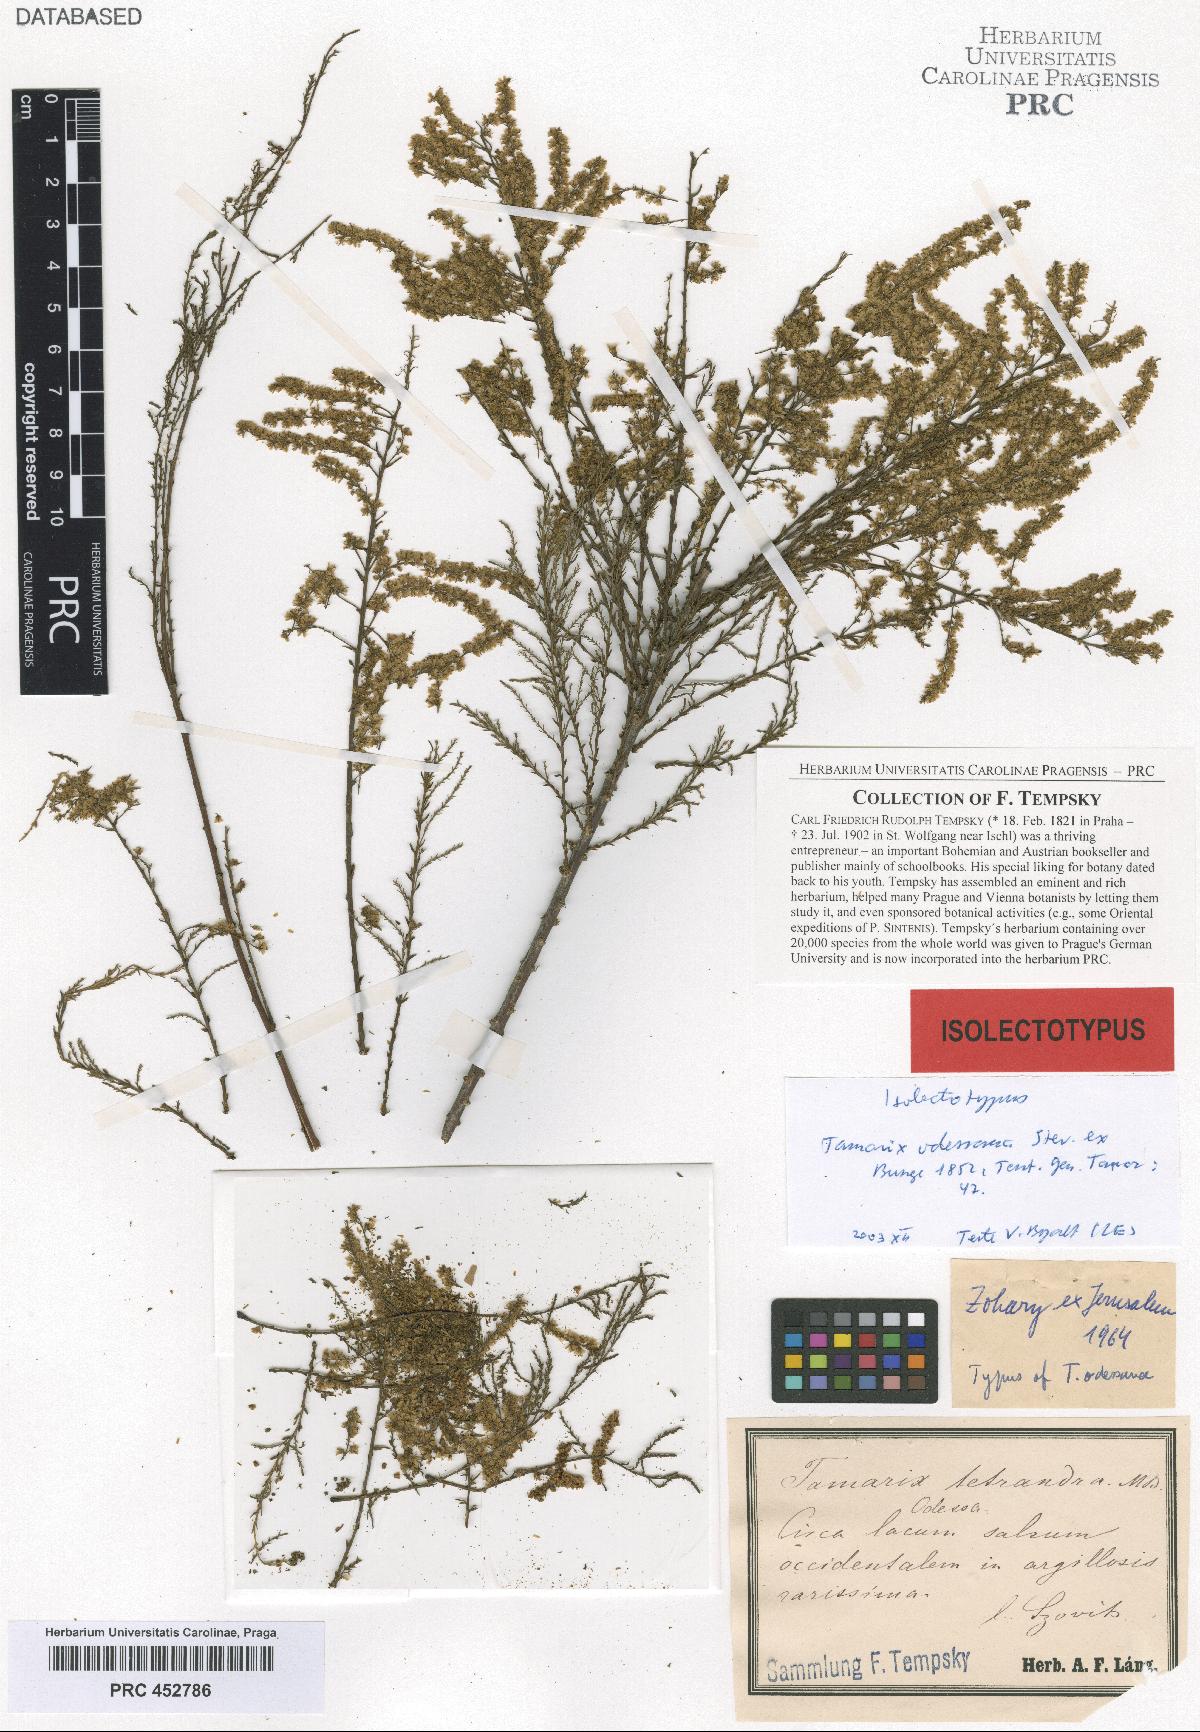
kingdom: Plantae
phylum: Tracheophyta
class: Magnoliopsida
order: Caryophyllales
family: Tamaricaceae
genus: Tamarix
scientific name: Tamarix ramosissima
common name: Pink tamarisk
